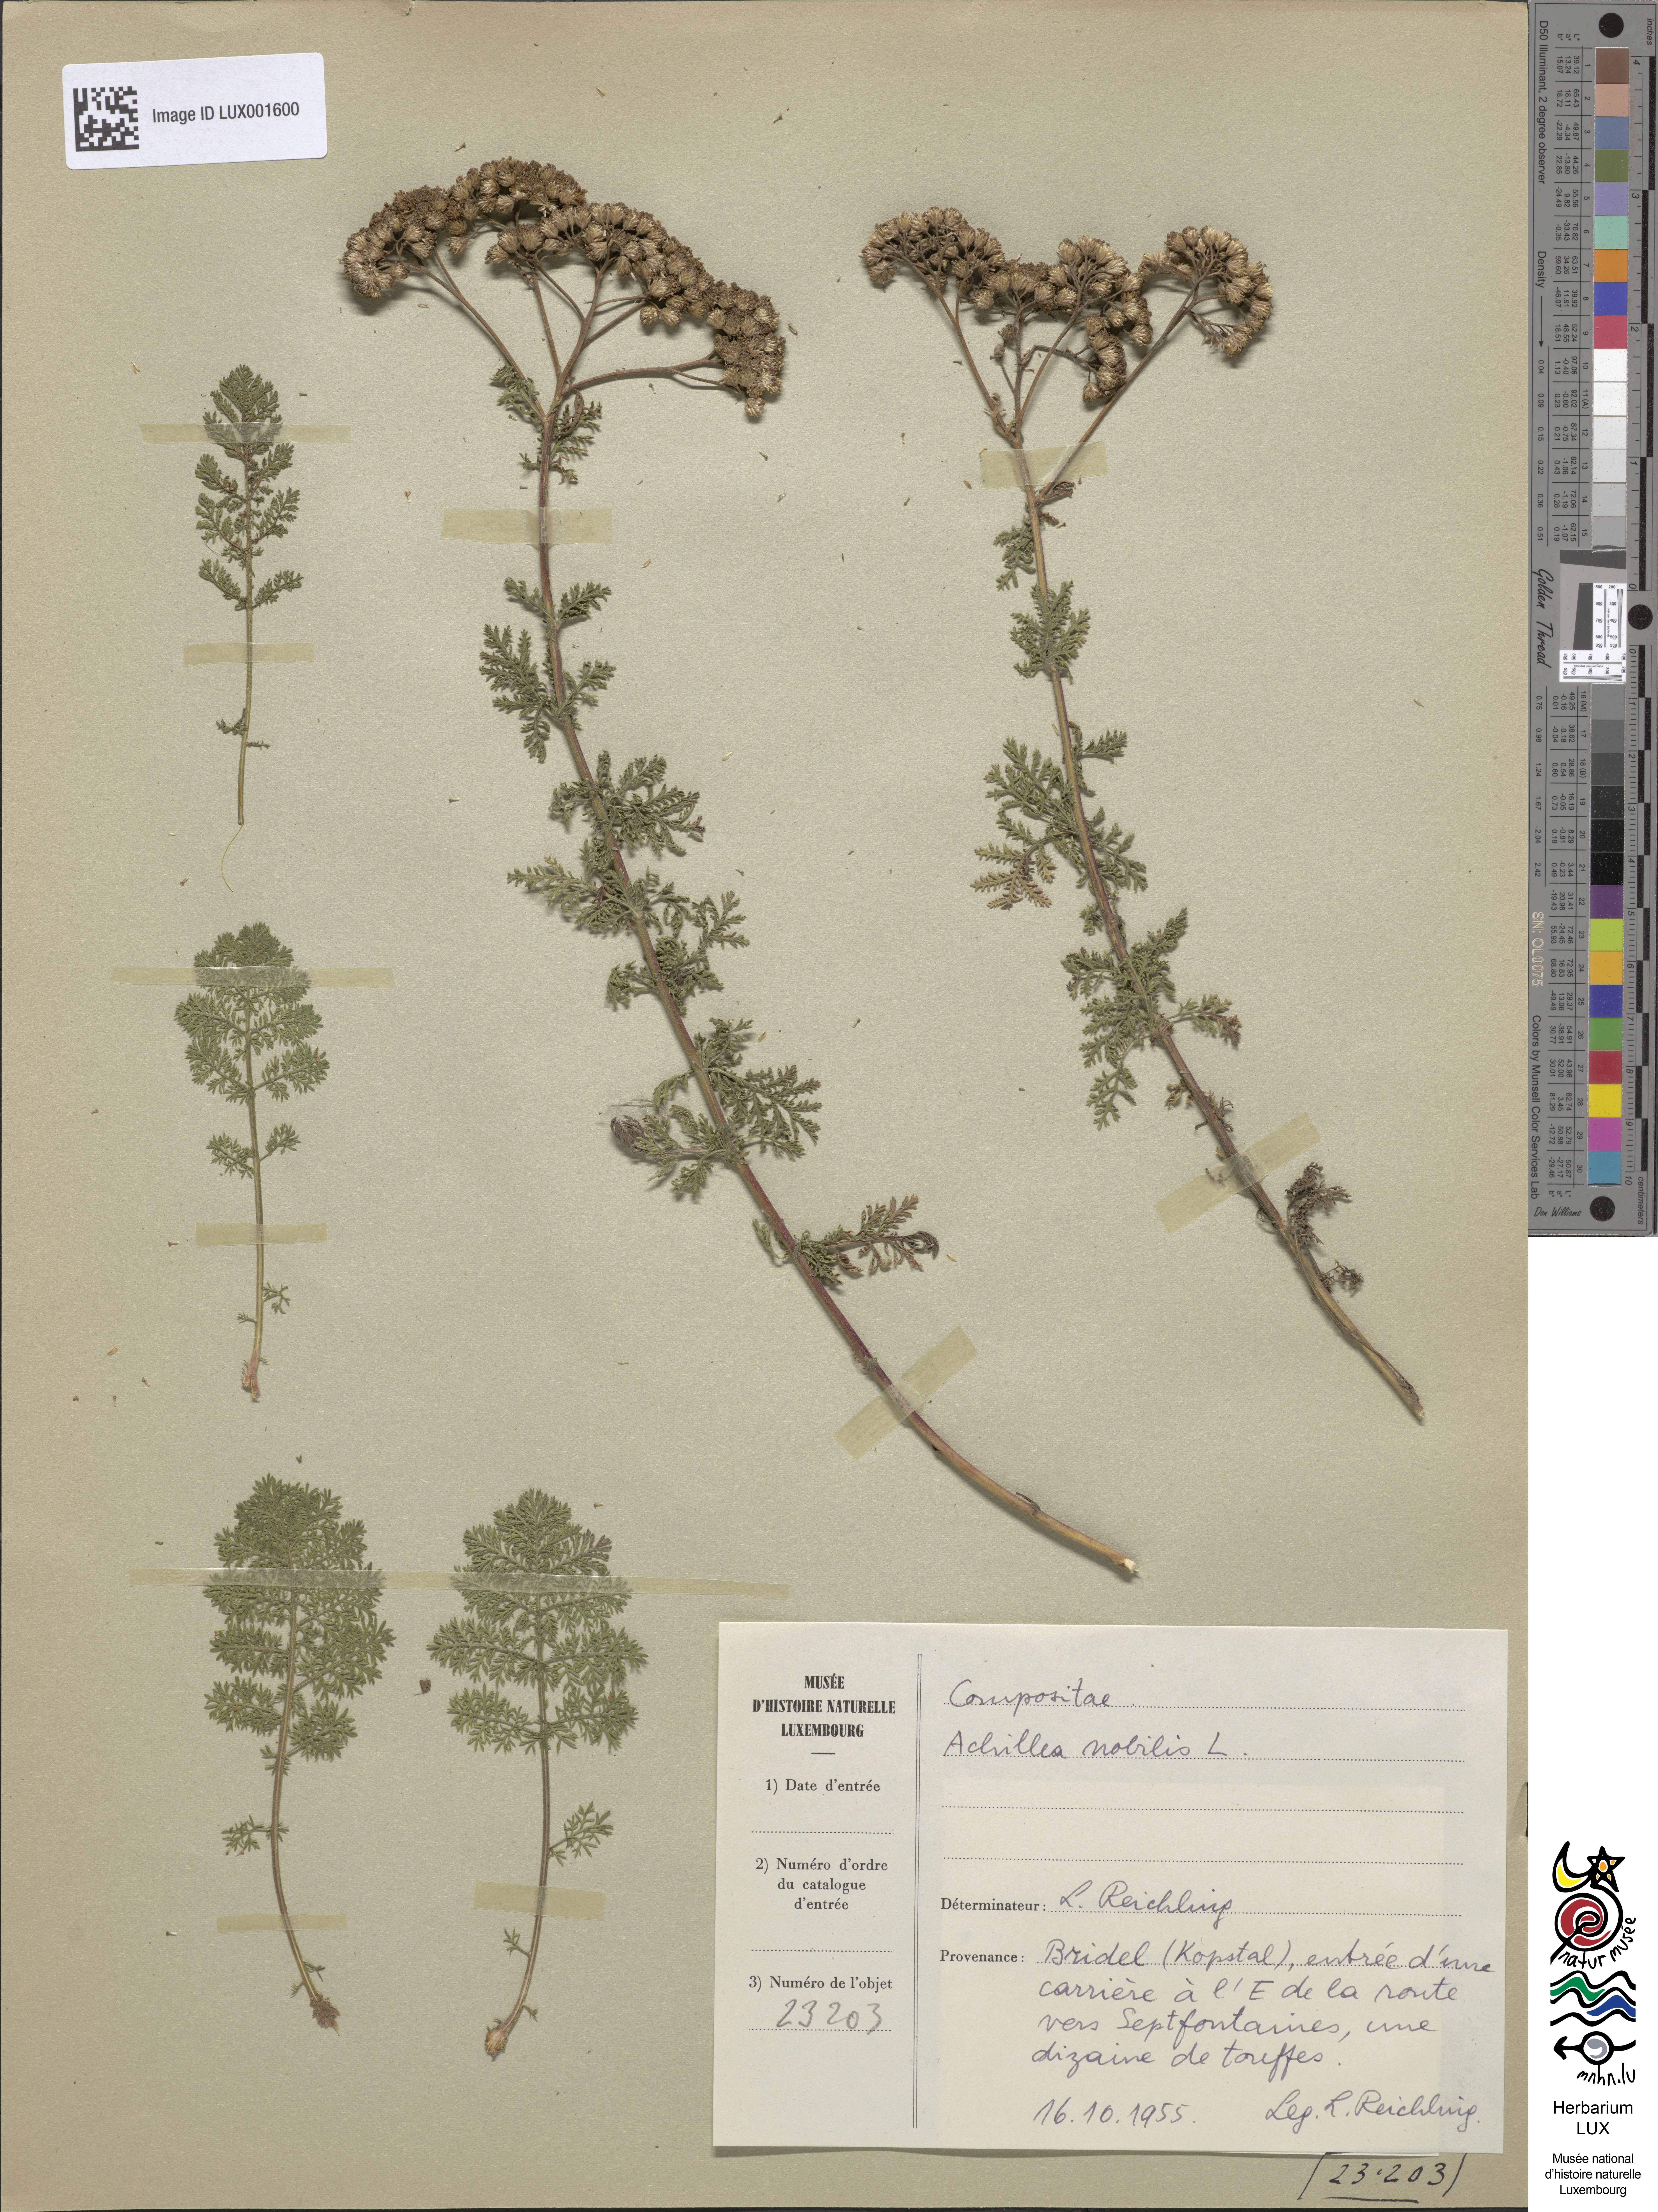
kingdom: Plantae
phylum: Tracheophyta
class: Magnoliopsida
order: Asterales
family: Asteraceae
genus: Achillea
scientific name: Achillea nobilis
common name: Noble yarrow
